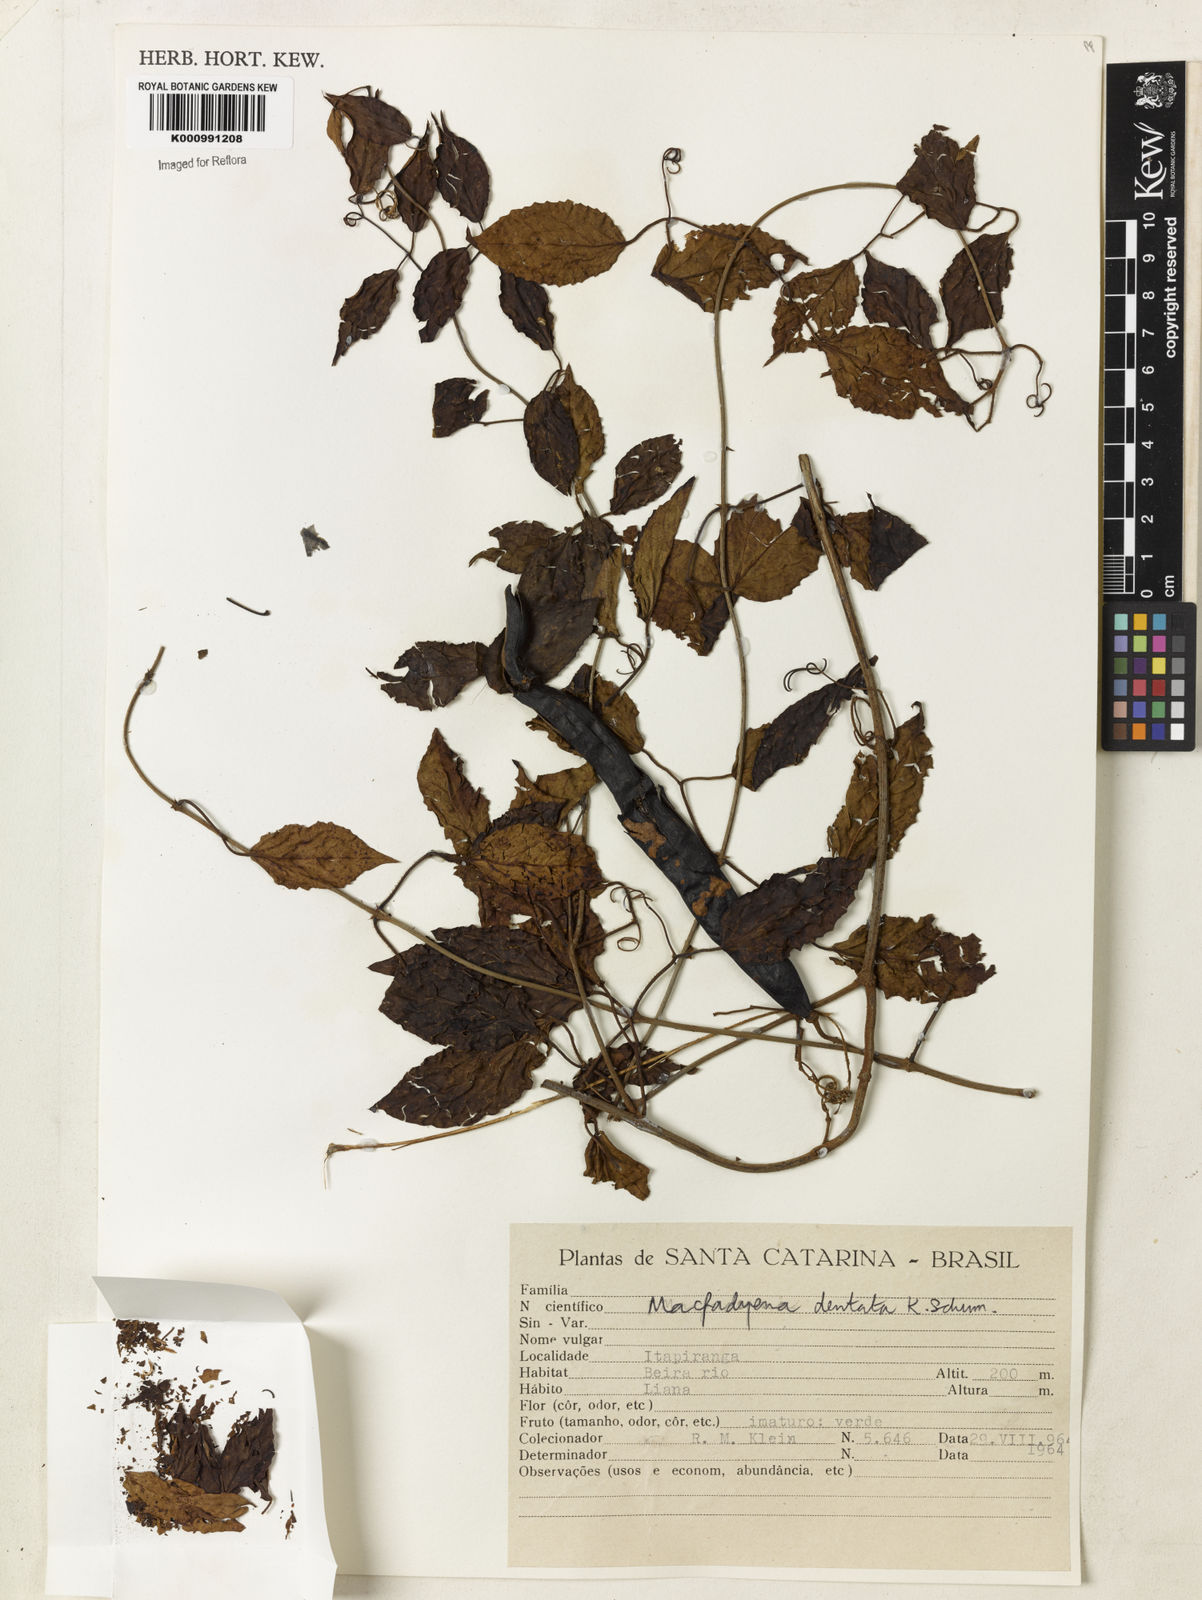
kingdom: Plantae
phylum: Tracheophyta
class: Magnoliopsida
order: Lamiales
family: Bignoniaceae
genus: Dolichandra
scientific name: Dolichandra dentata
